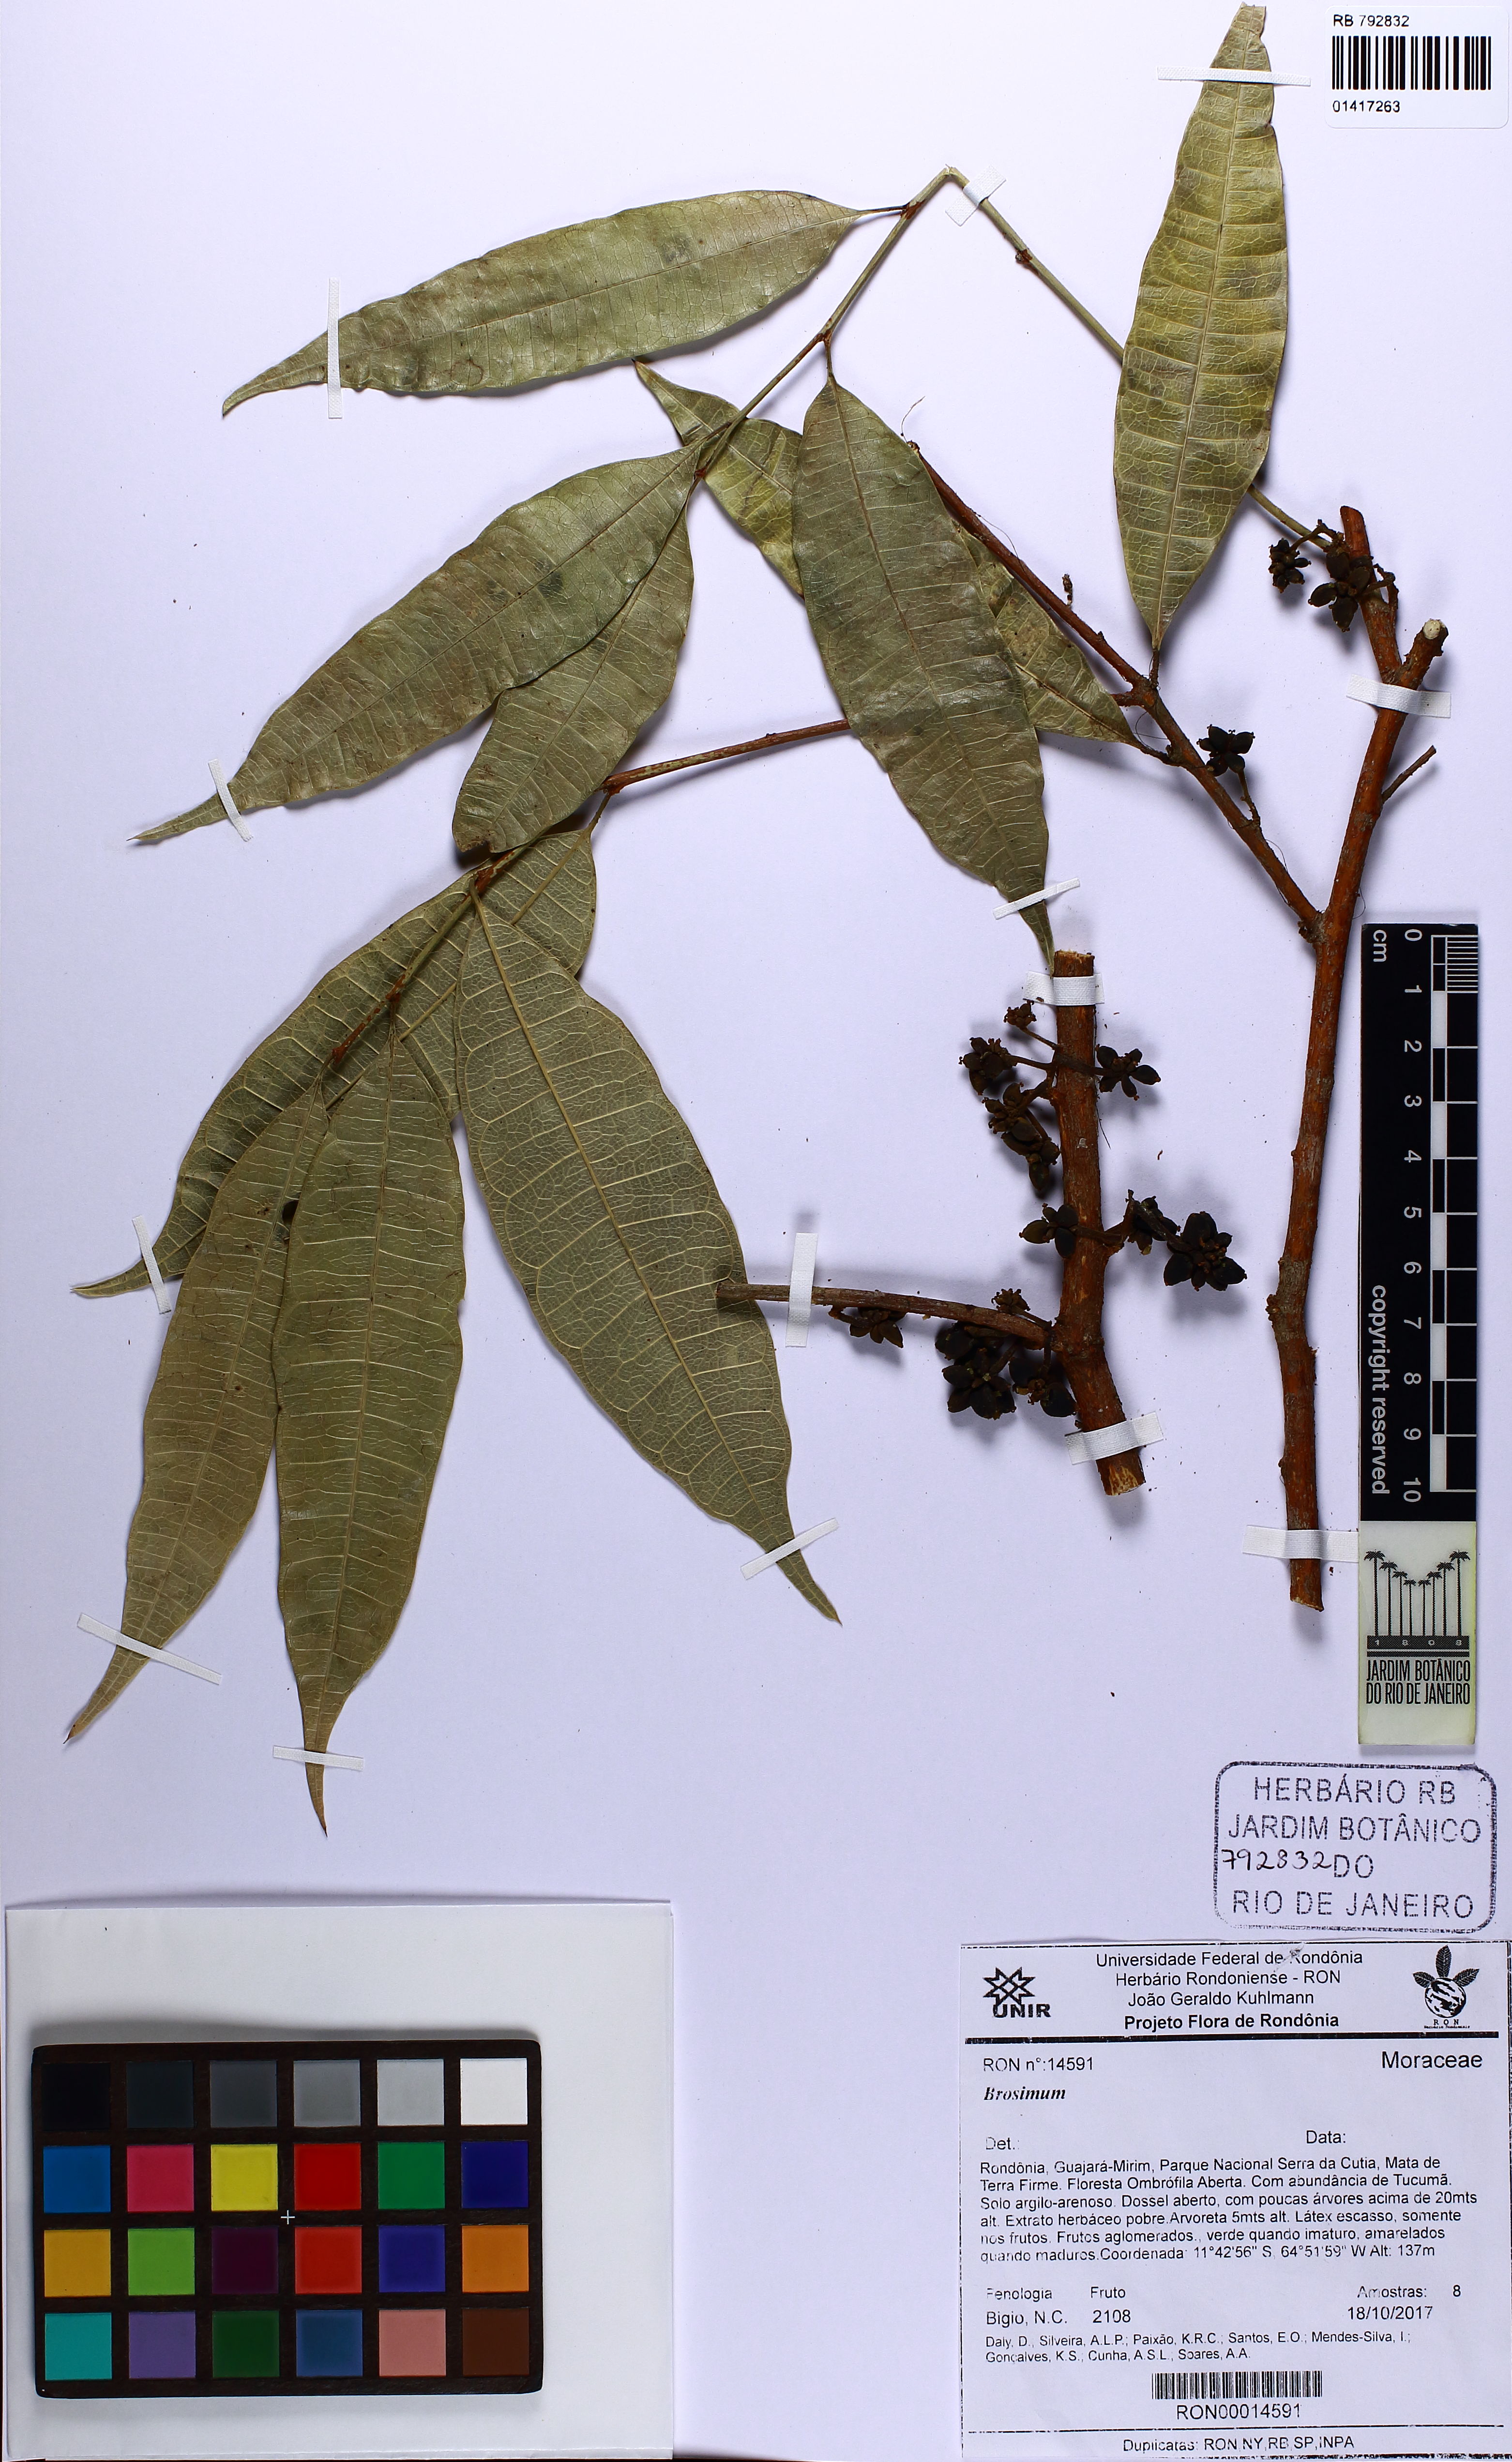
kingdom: Plantae
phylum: Tracheophyta
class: Magnoliopsida
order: Rosales
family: Moraceae
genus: Brosimum
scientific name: Brosimum
